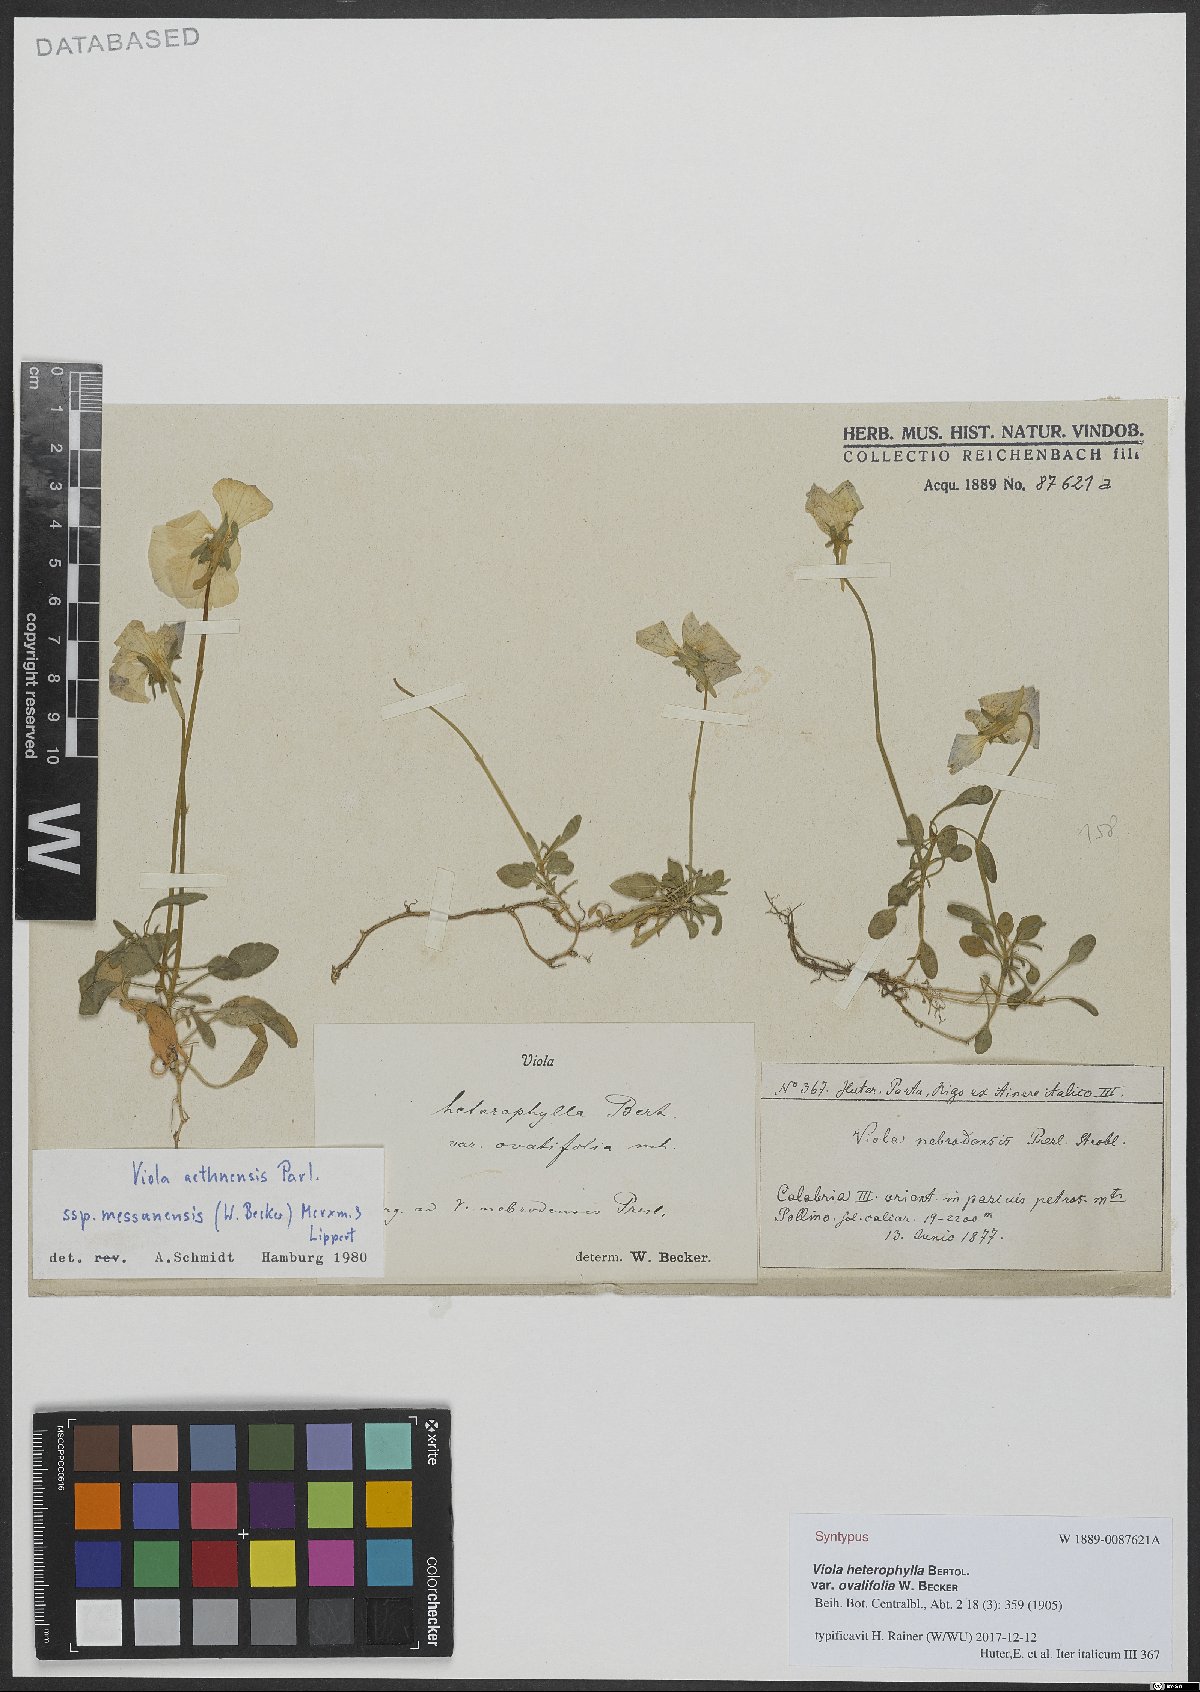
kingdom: Plantae
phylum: Tracheophyta
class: Magnoliopsida
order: Malpighiales
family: Violaceae
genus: Viola
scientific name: Viola aethnensis
